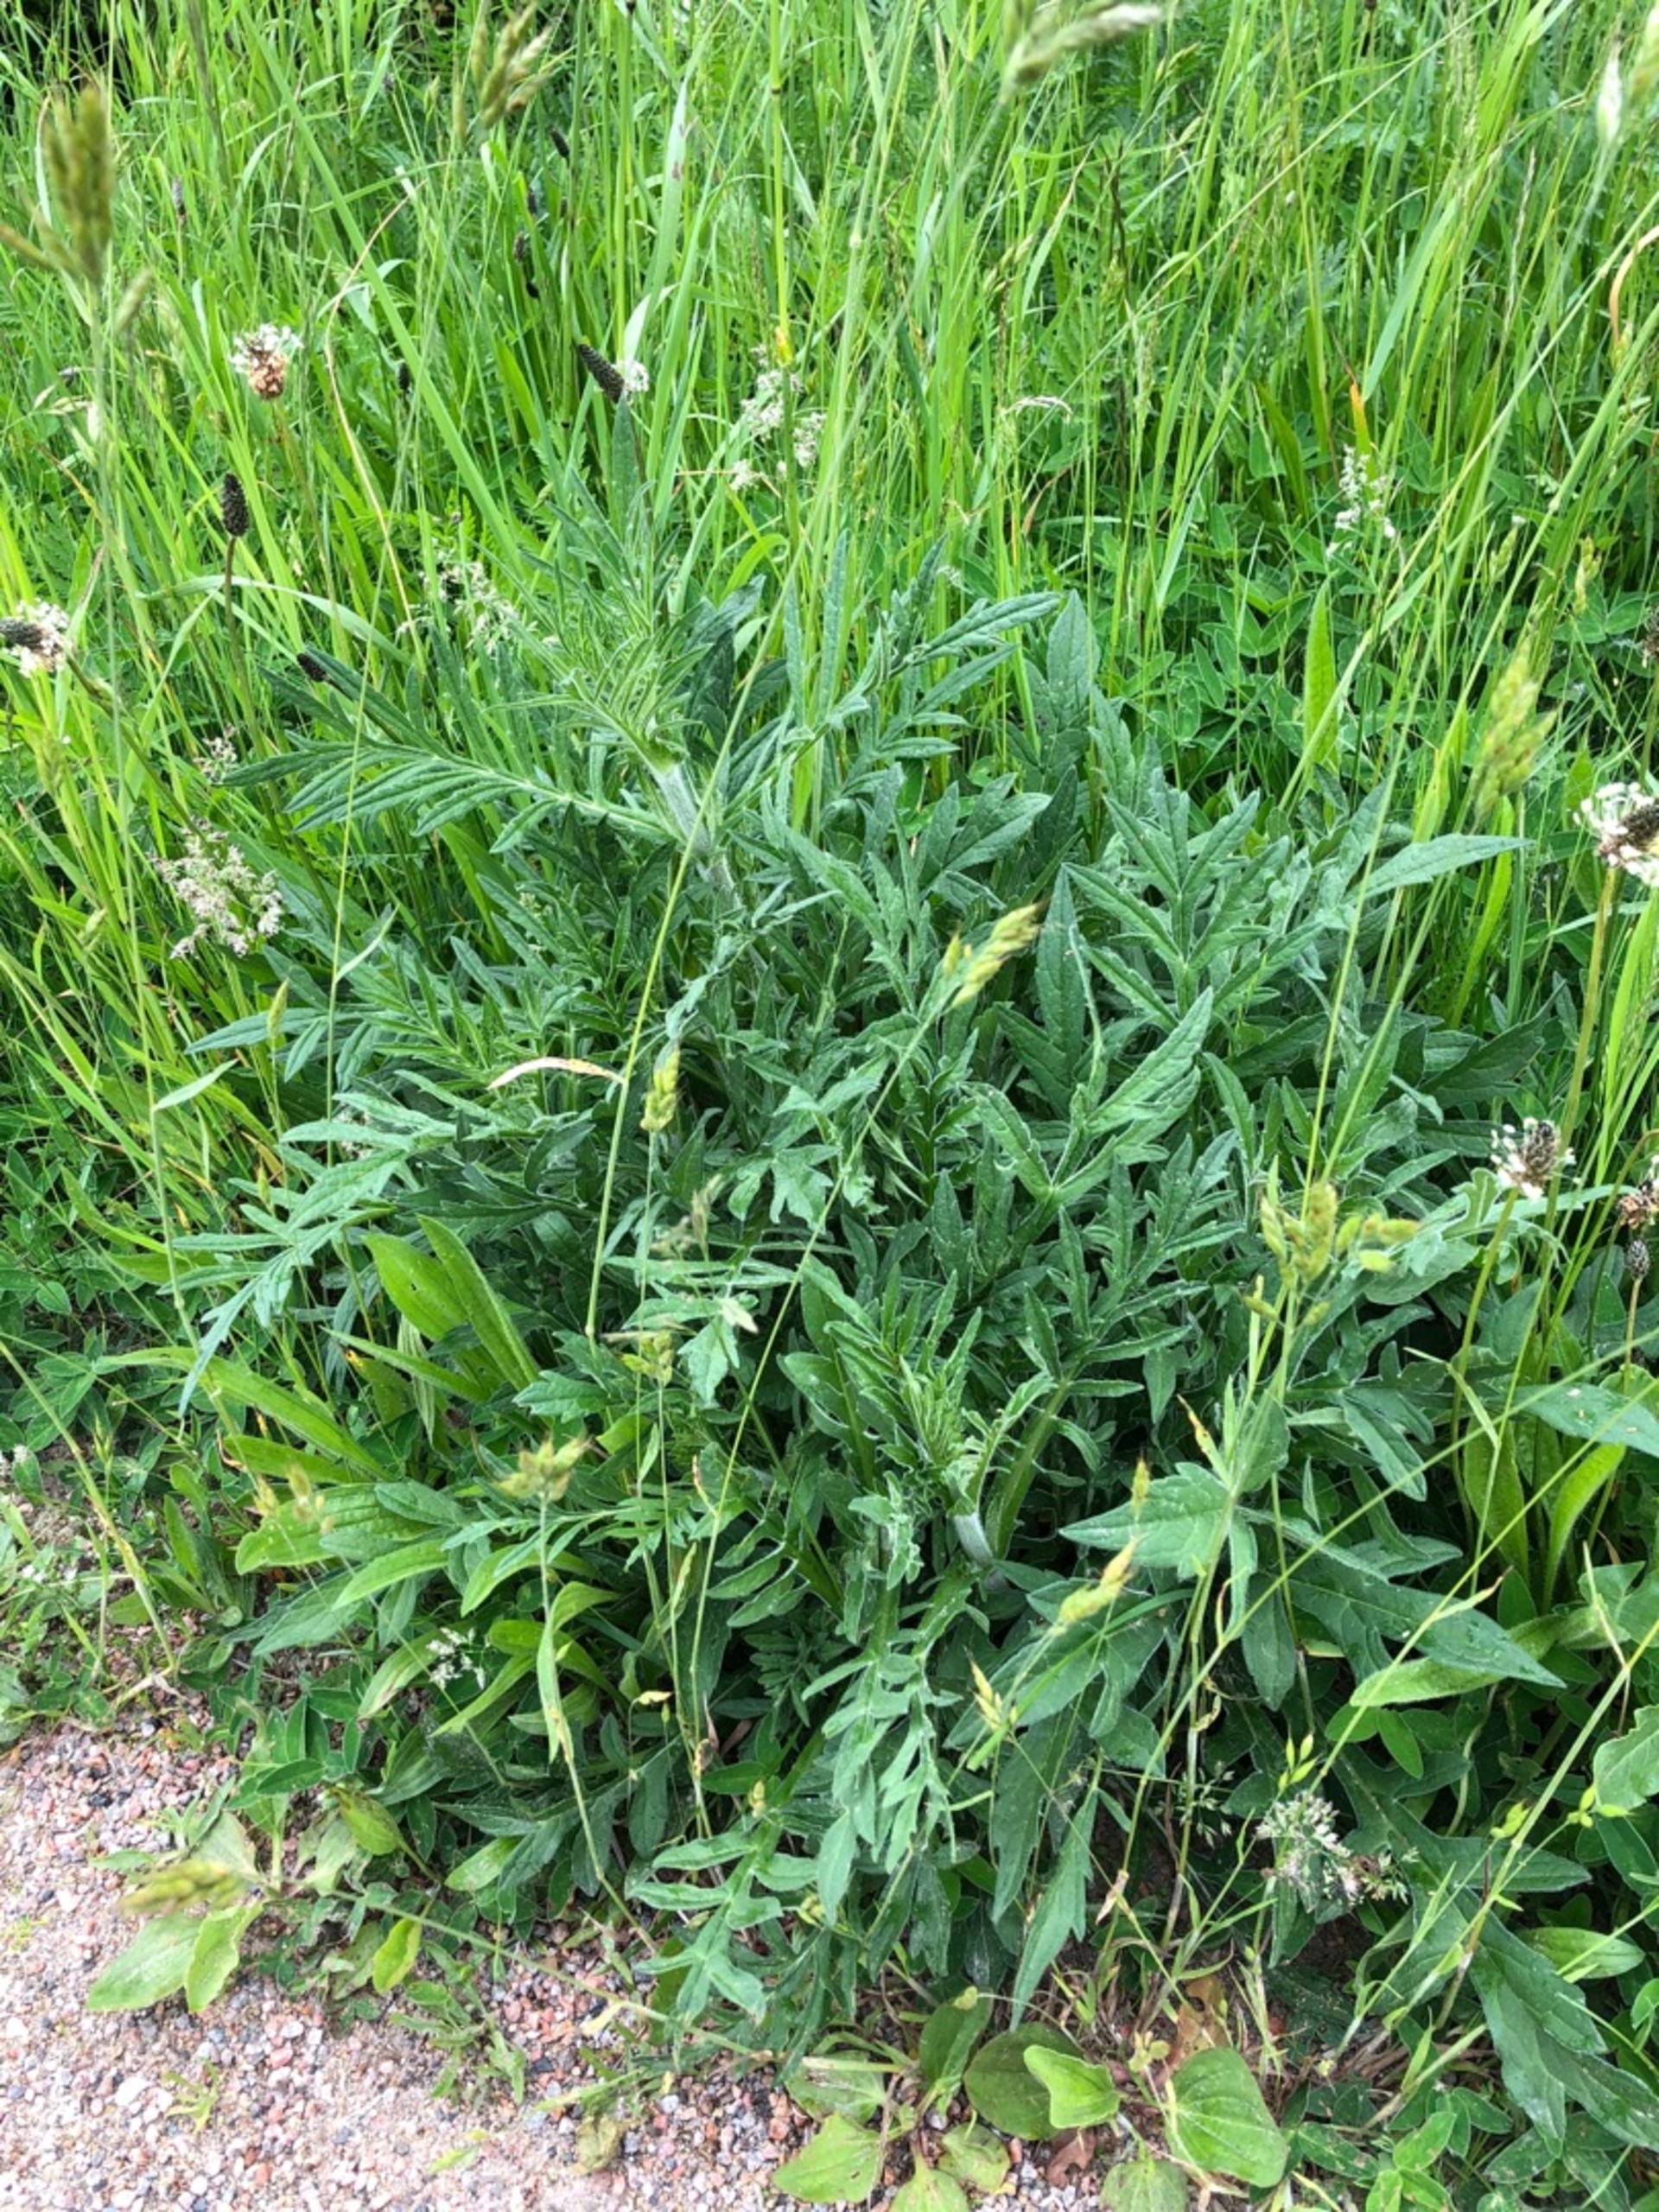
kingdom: Plantae
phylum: Tracheophyta
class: Magnoliopsida
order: Dipsacales
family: Caprifoliaceae
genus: Knautia
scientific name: Knautia arvensis
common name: Blåhat
